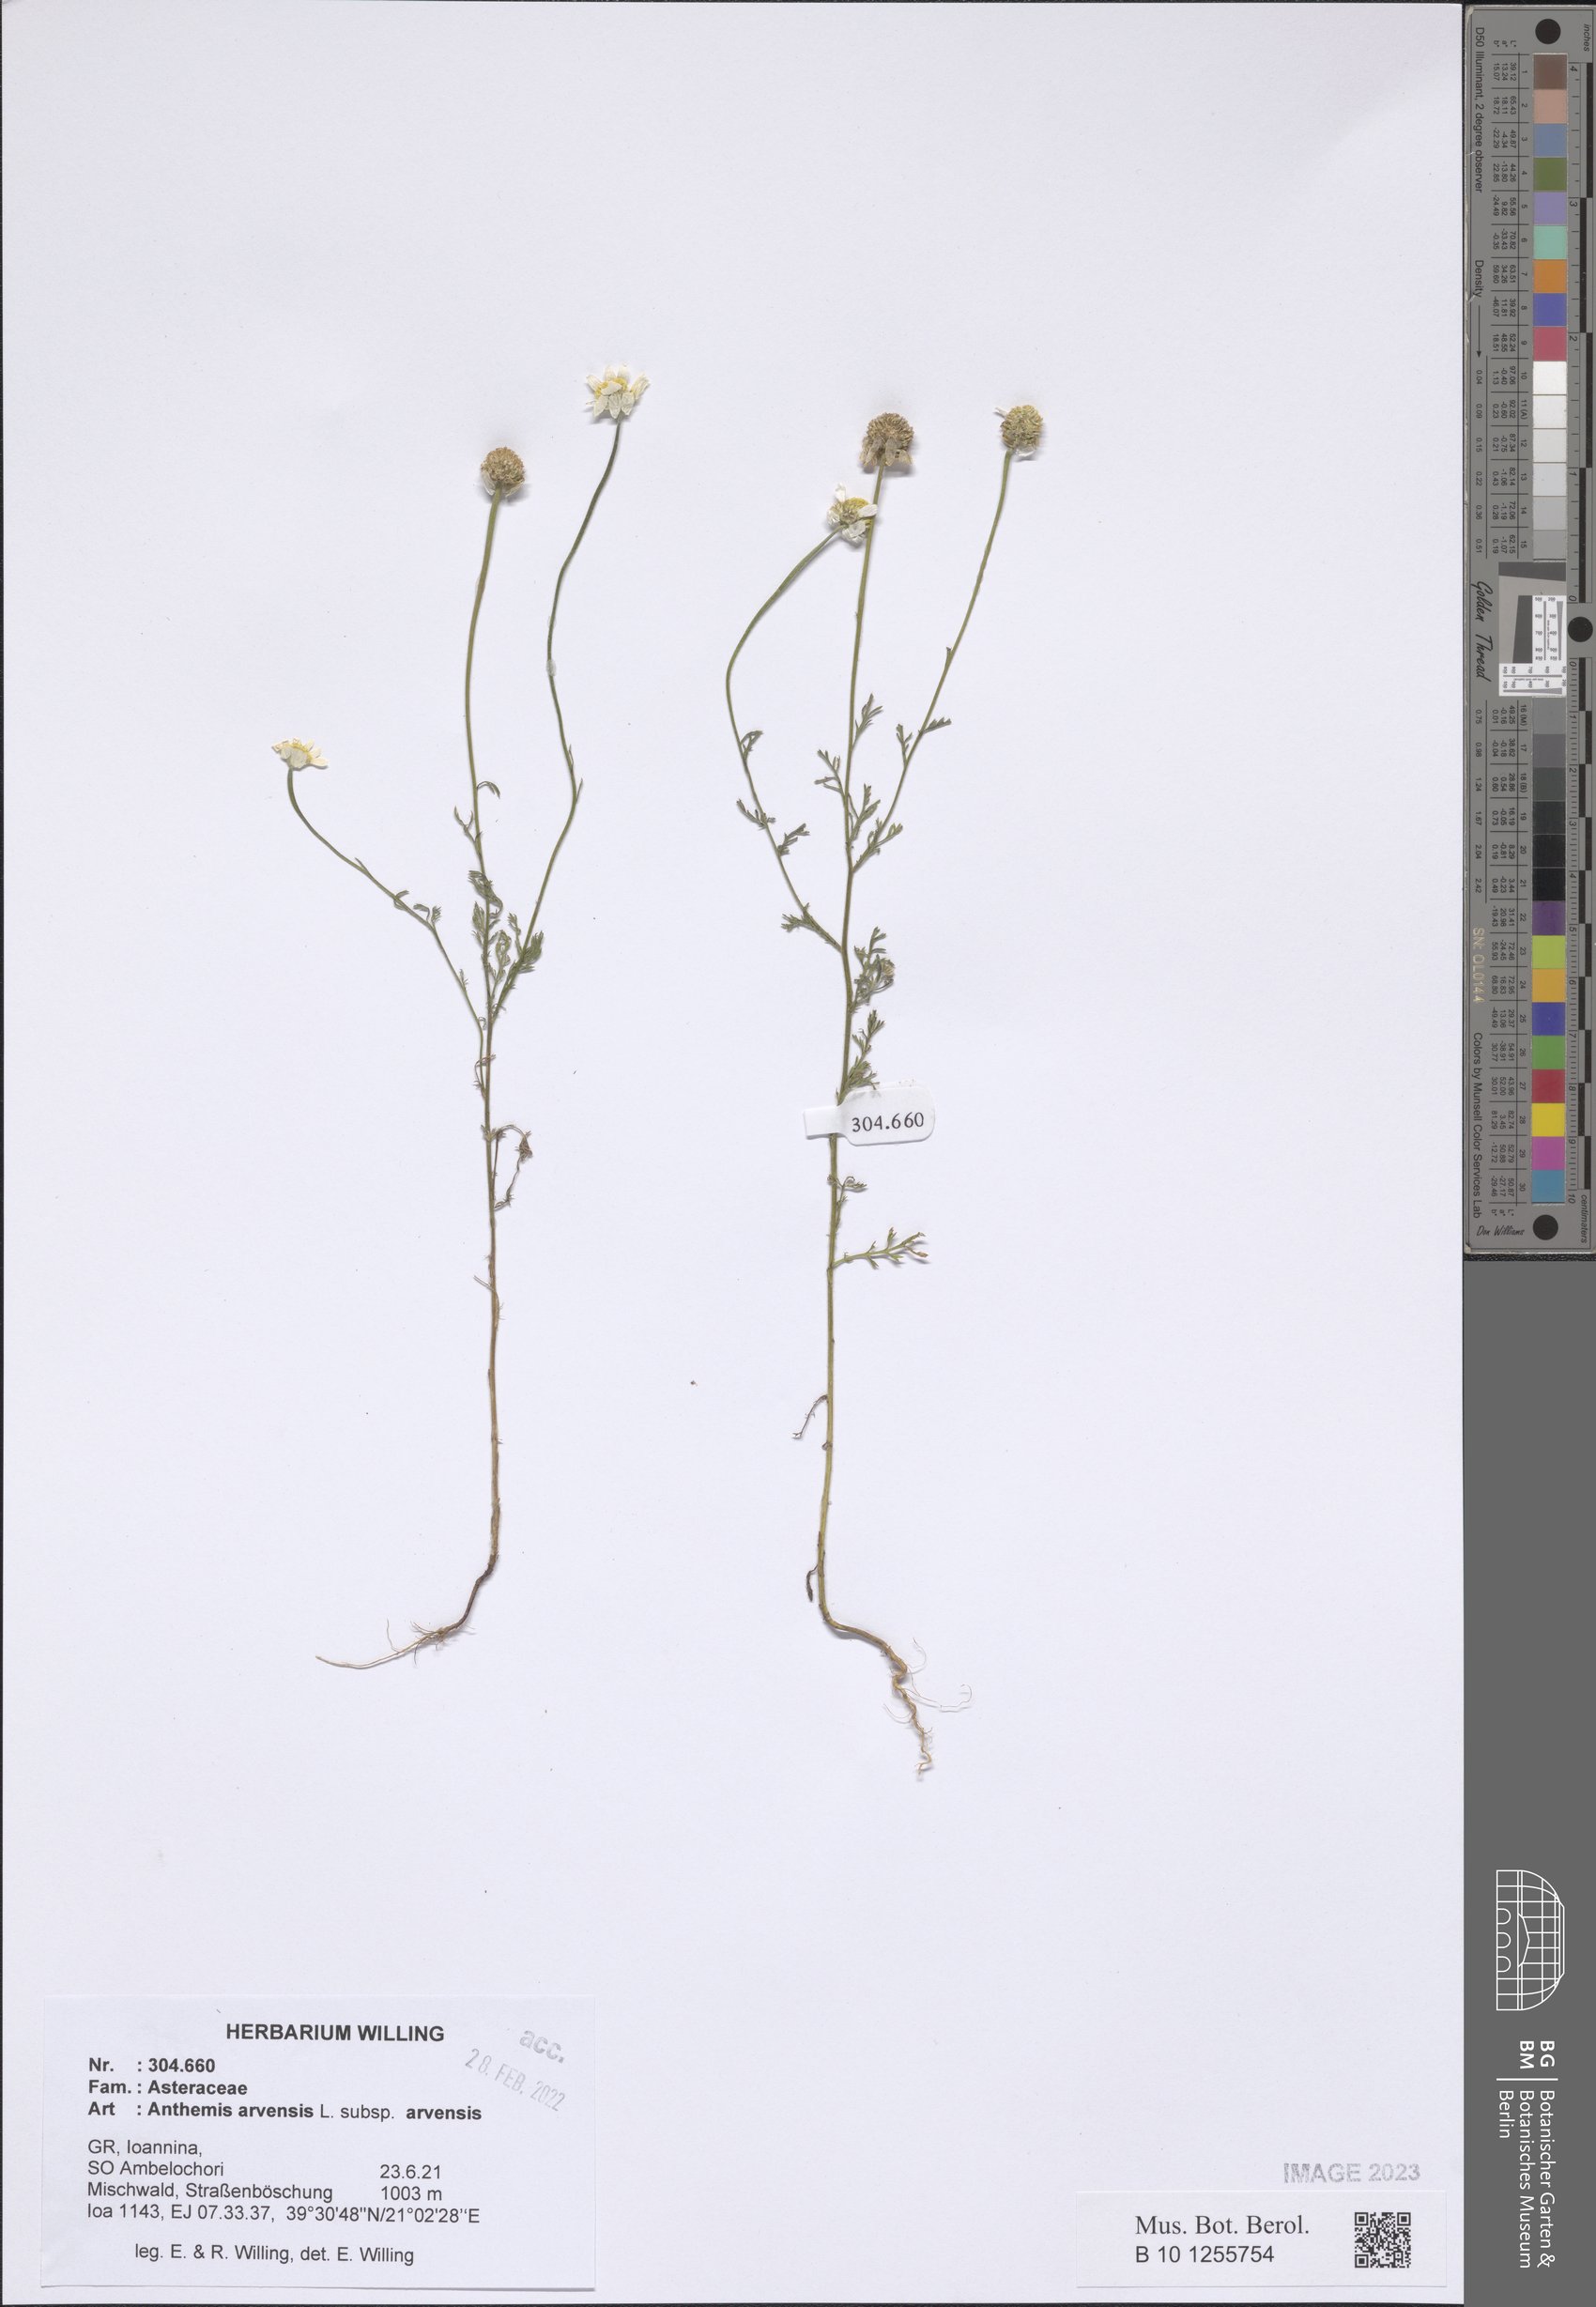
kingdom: Plantae
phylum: Tracheophyta
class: Magnoliopsida
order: Asterales
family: Asteraceae
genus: Anthemis
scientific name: Anthemis arvensis
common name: Corn chamomile
